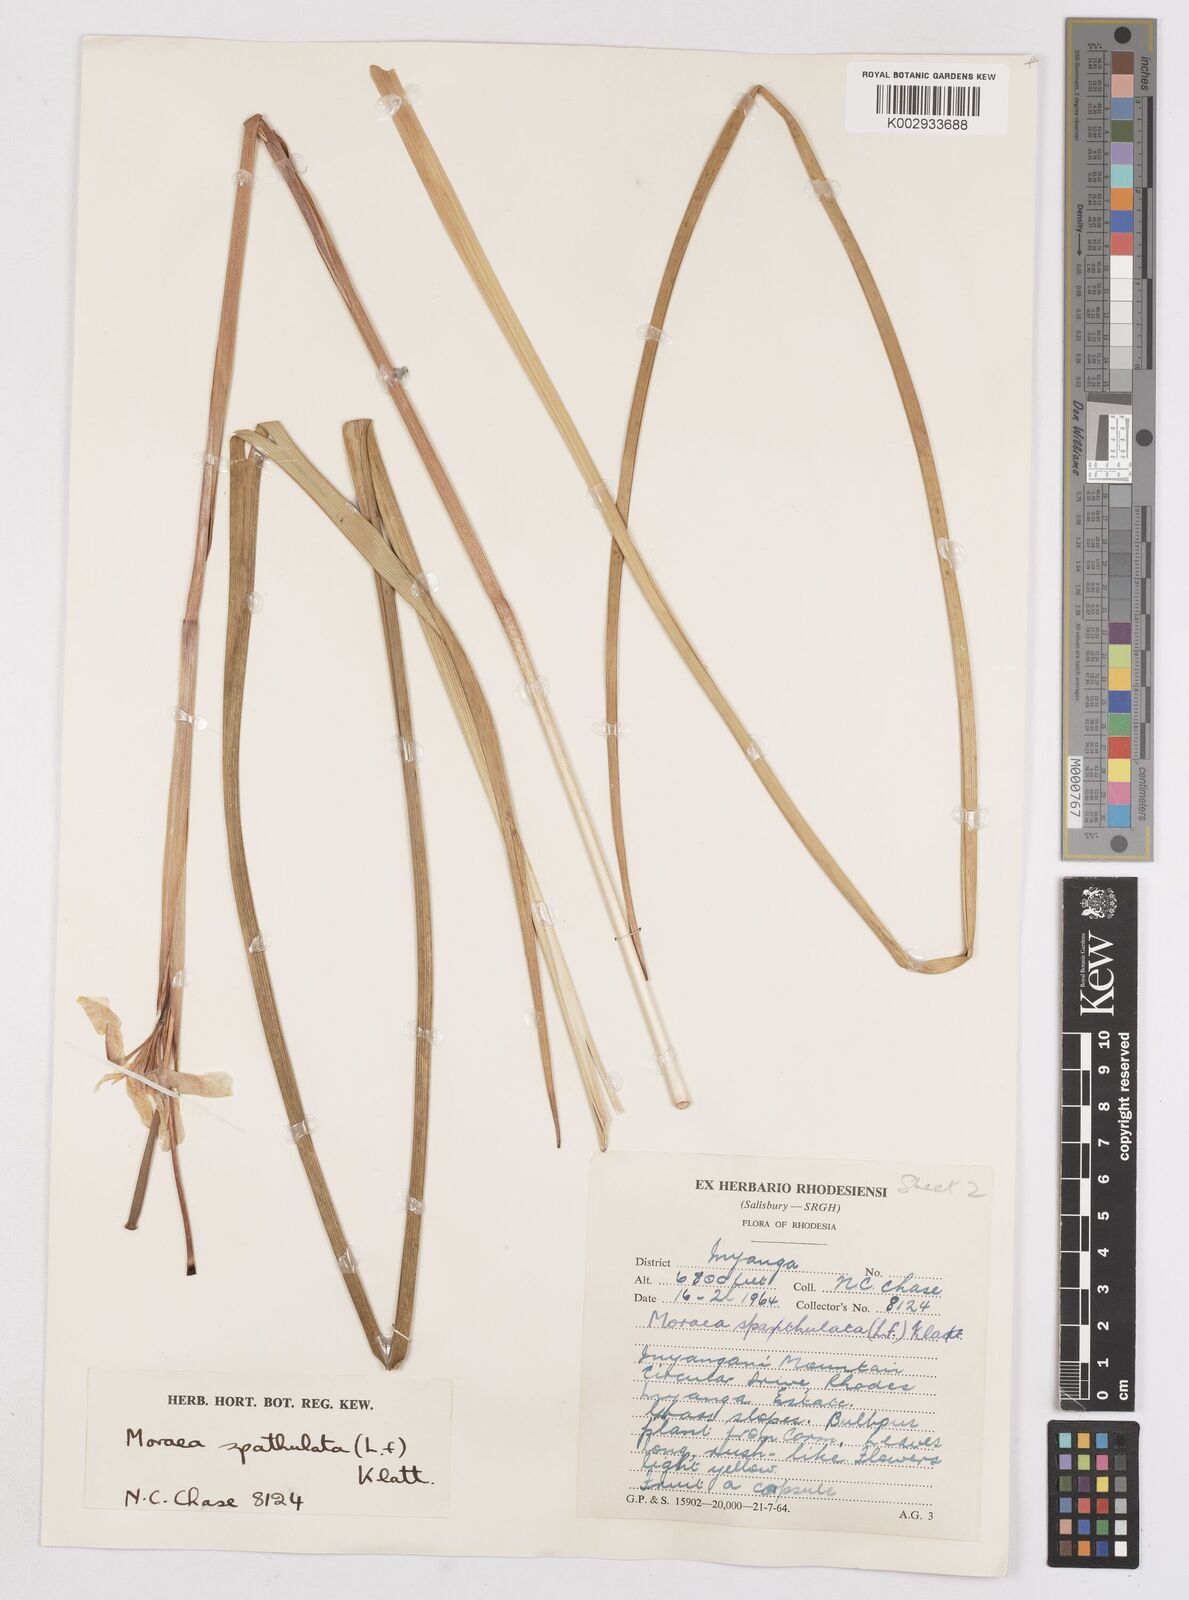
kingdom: Plantae
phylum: Tracheophyta
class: Liliopsida
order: Asparagales
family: Iridaceae
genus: Moraea
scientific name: Moraea spathulata
